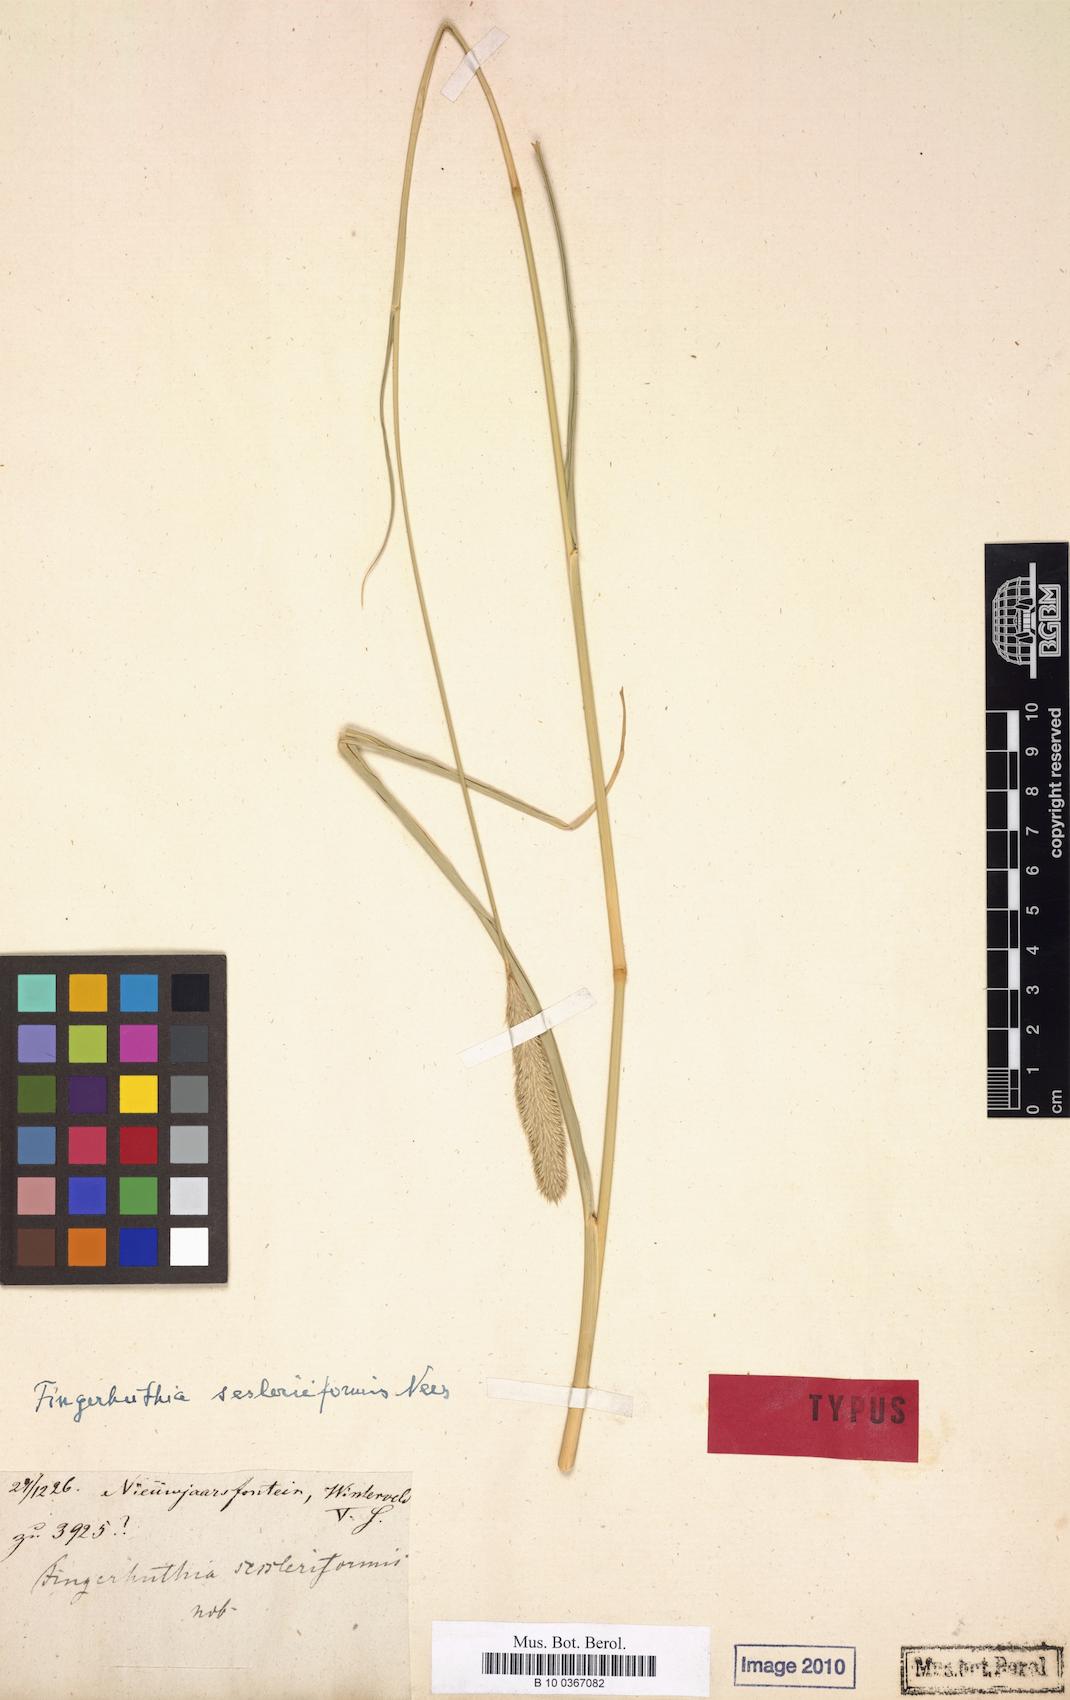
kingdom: Plantae
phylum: Tracheophyta
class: Liliopsida
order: Poales
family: Poaceae
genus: Fingerhuthia
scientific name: Fingerhuthia sesleriiformis
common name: Thimble grass
